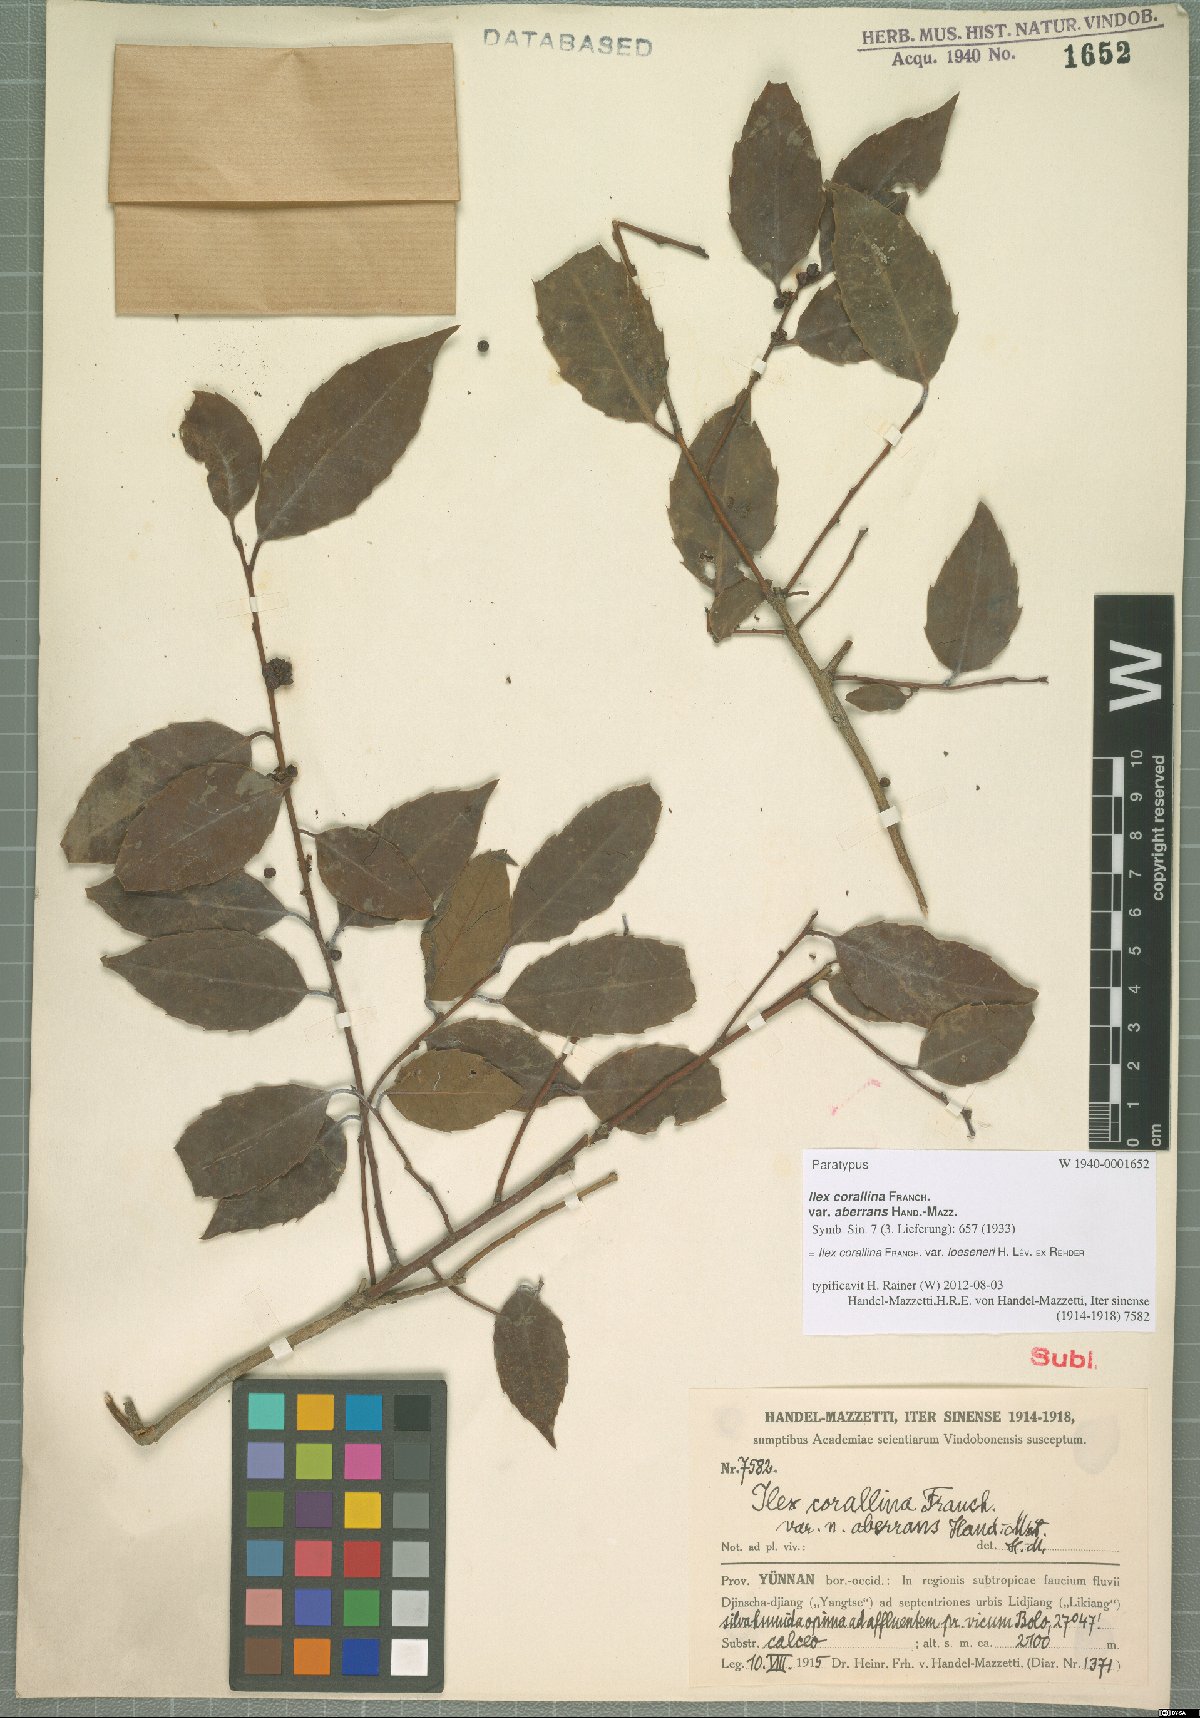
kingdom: Plantae
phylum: Tracheophyta
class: Magnoliopsida
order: Aquifoliales
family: Aquifoliaceae
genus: Ilex
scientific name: Ilex corallina
